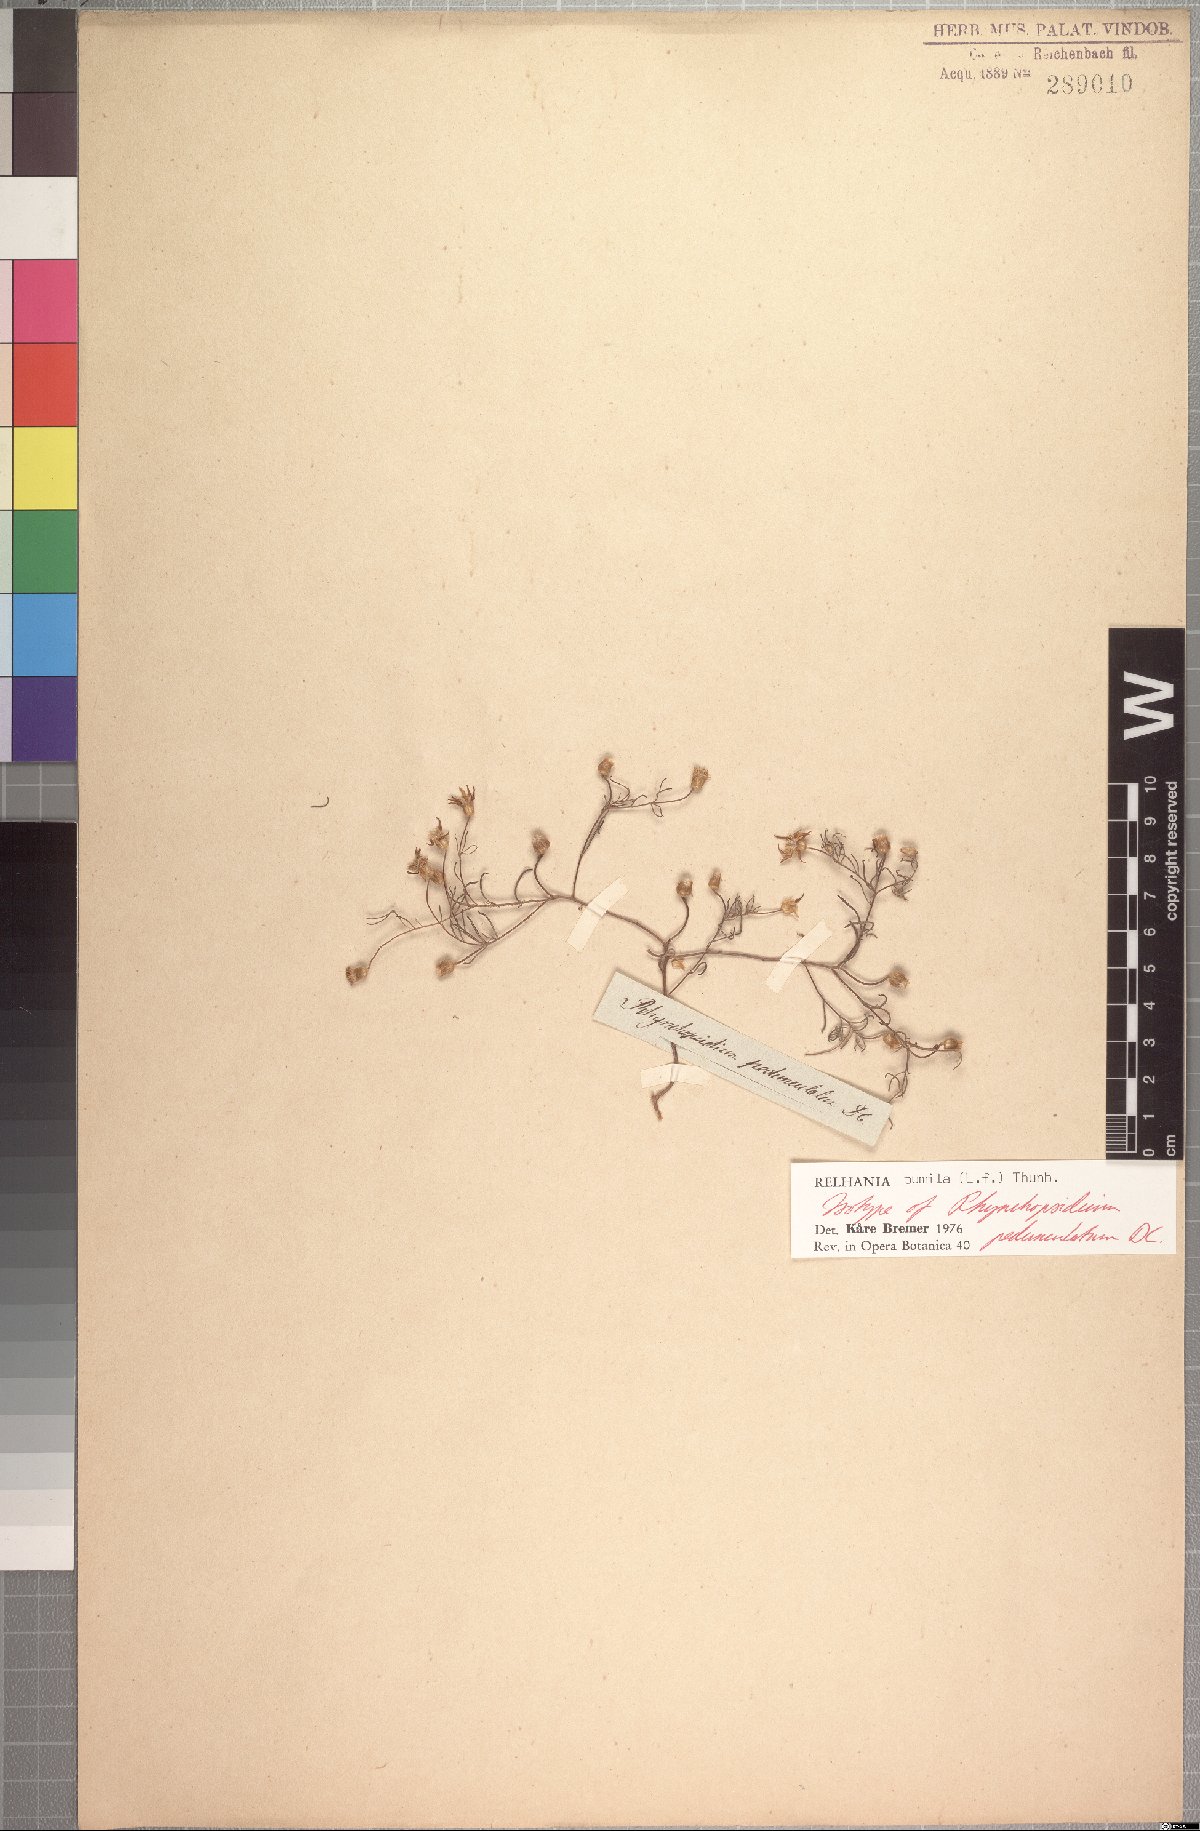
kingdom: Plantae
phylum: Tracheophyta
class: Magnoliopsida
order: Asterales
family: Asteraceae
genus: Rhynchopsidium
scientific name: Rhynchopsidium pumilum
